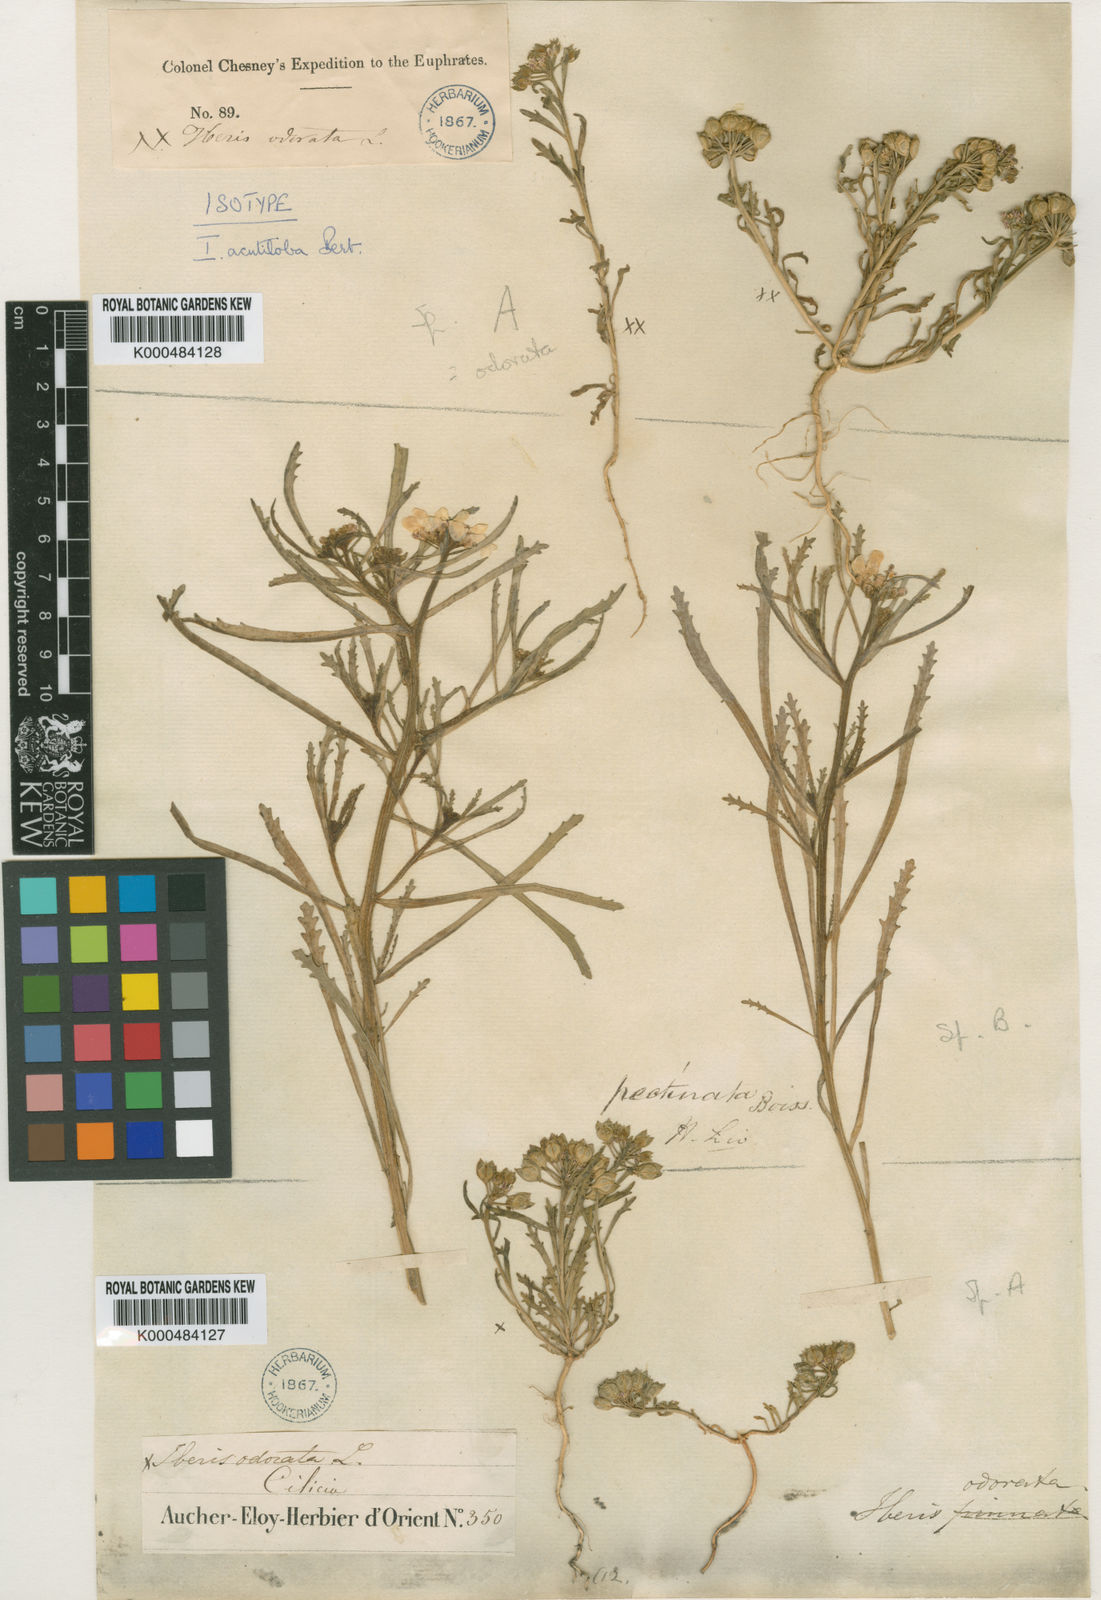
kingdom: Plantae
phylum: Tracheophyta
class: Magnoliopsida
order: Brassicales
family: Brassicaceae
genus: Iberis
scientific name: Iberis odorata
